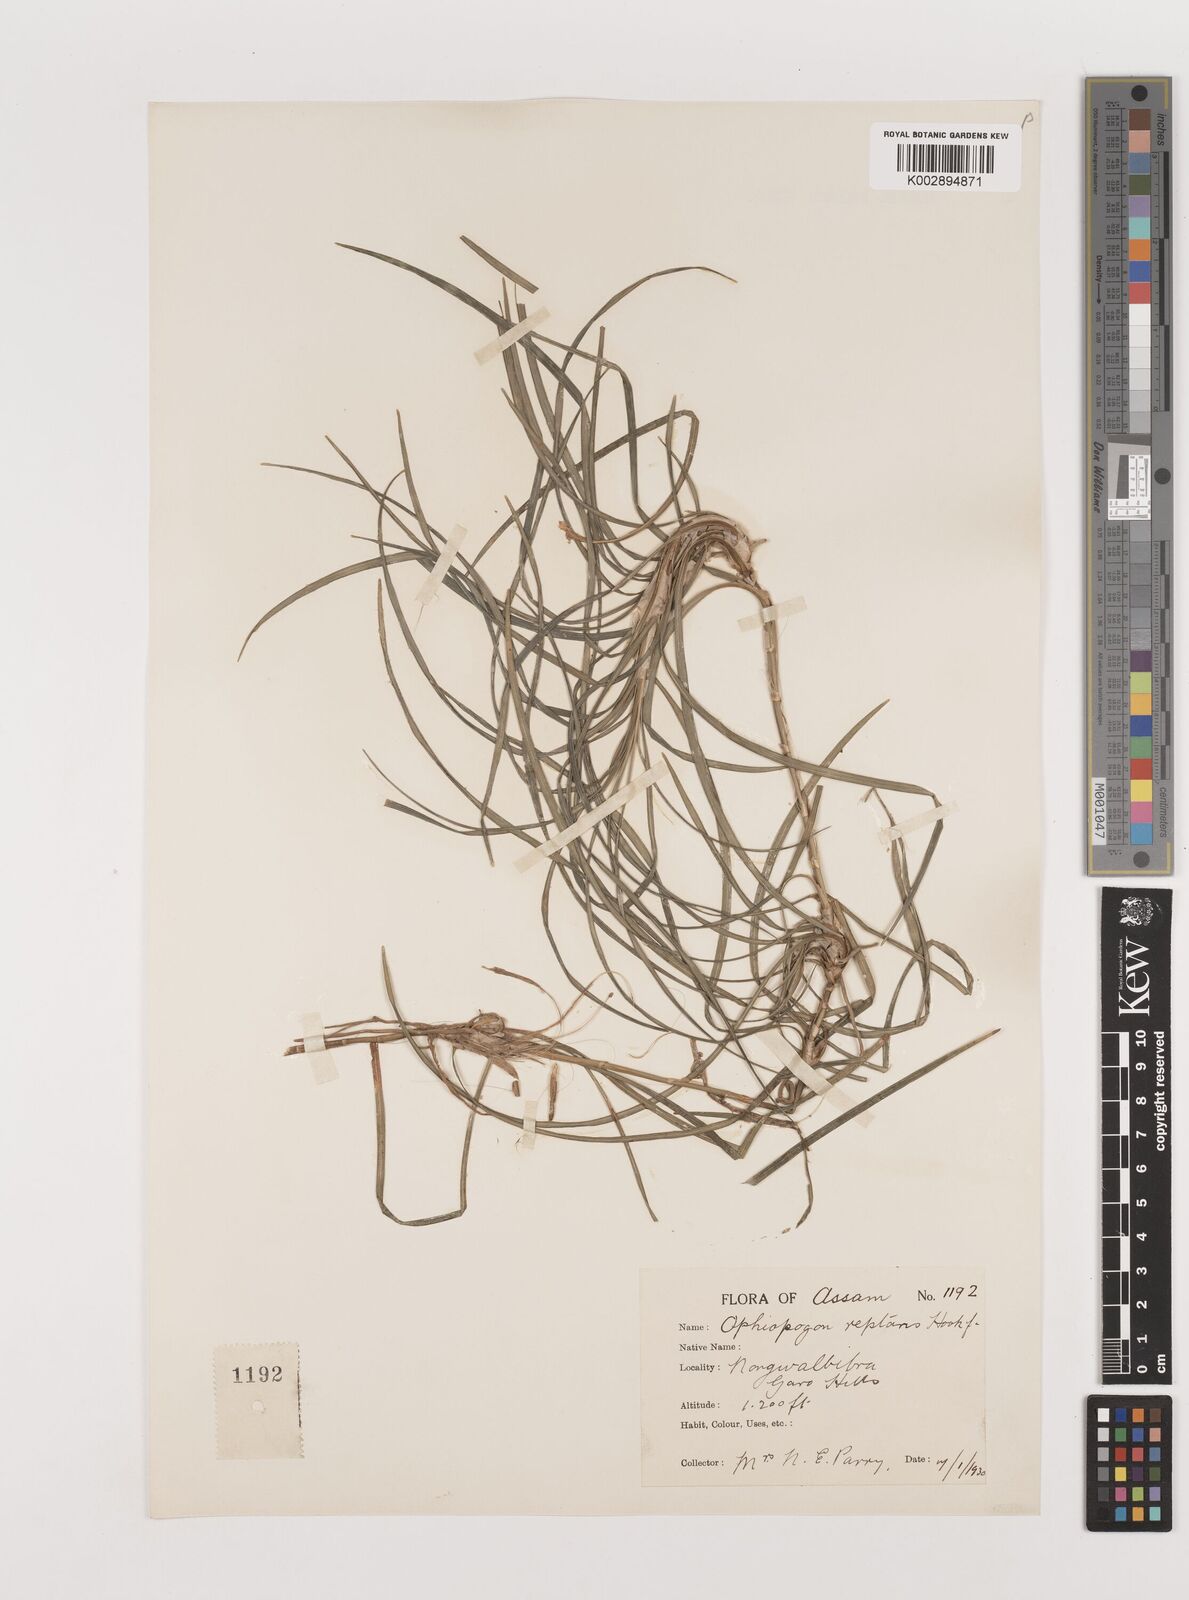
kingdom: Plantae
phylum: Tracheophyta
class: Liliopsida
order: Asparagales
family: Asparagaceae
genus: Ophiopogon
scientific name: Ophiopogon reptans
